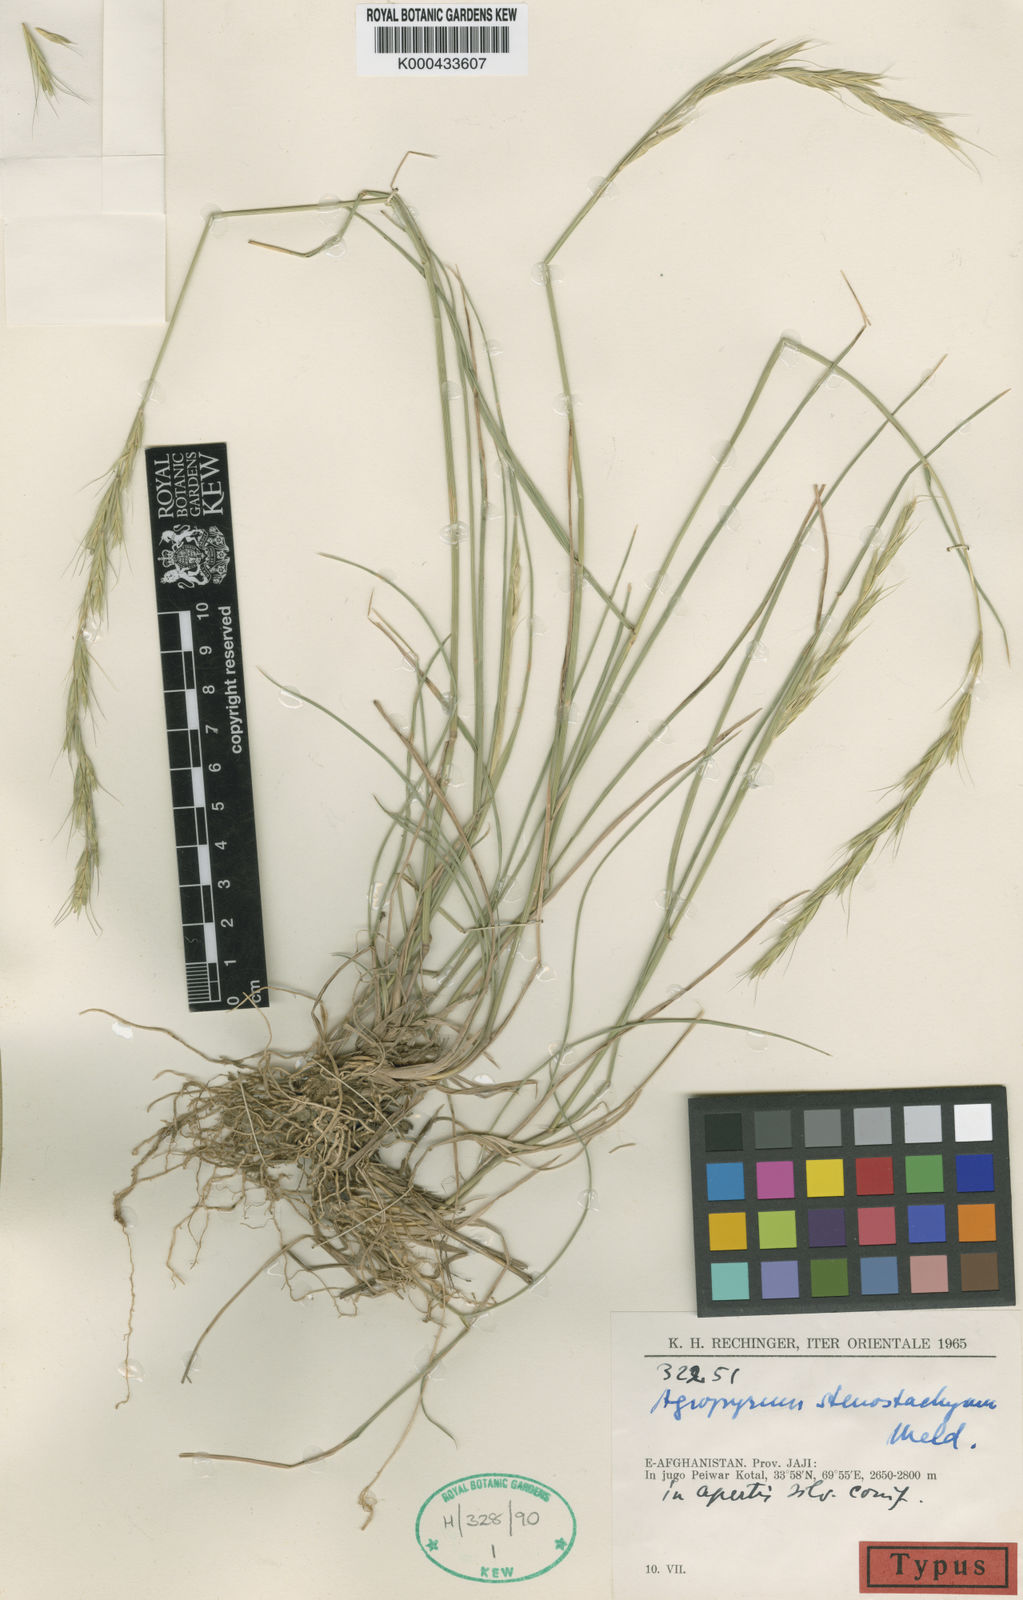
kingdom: Plantae
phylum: Tracheophyta
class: Liliopsida
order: Poales
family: Poaceae
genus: Elymus
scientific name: Elymus stenostachyus
